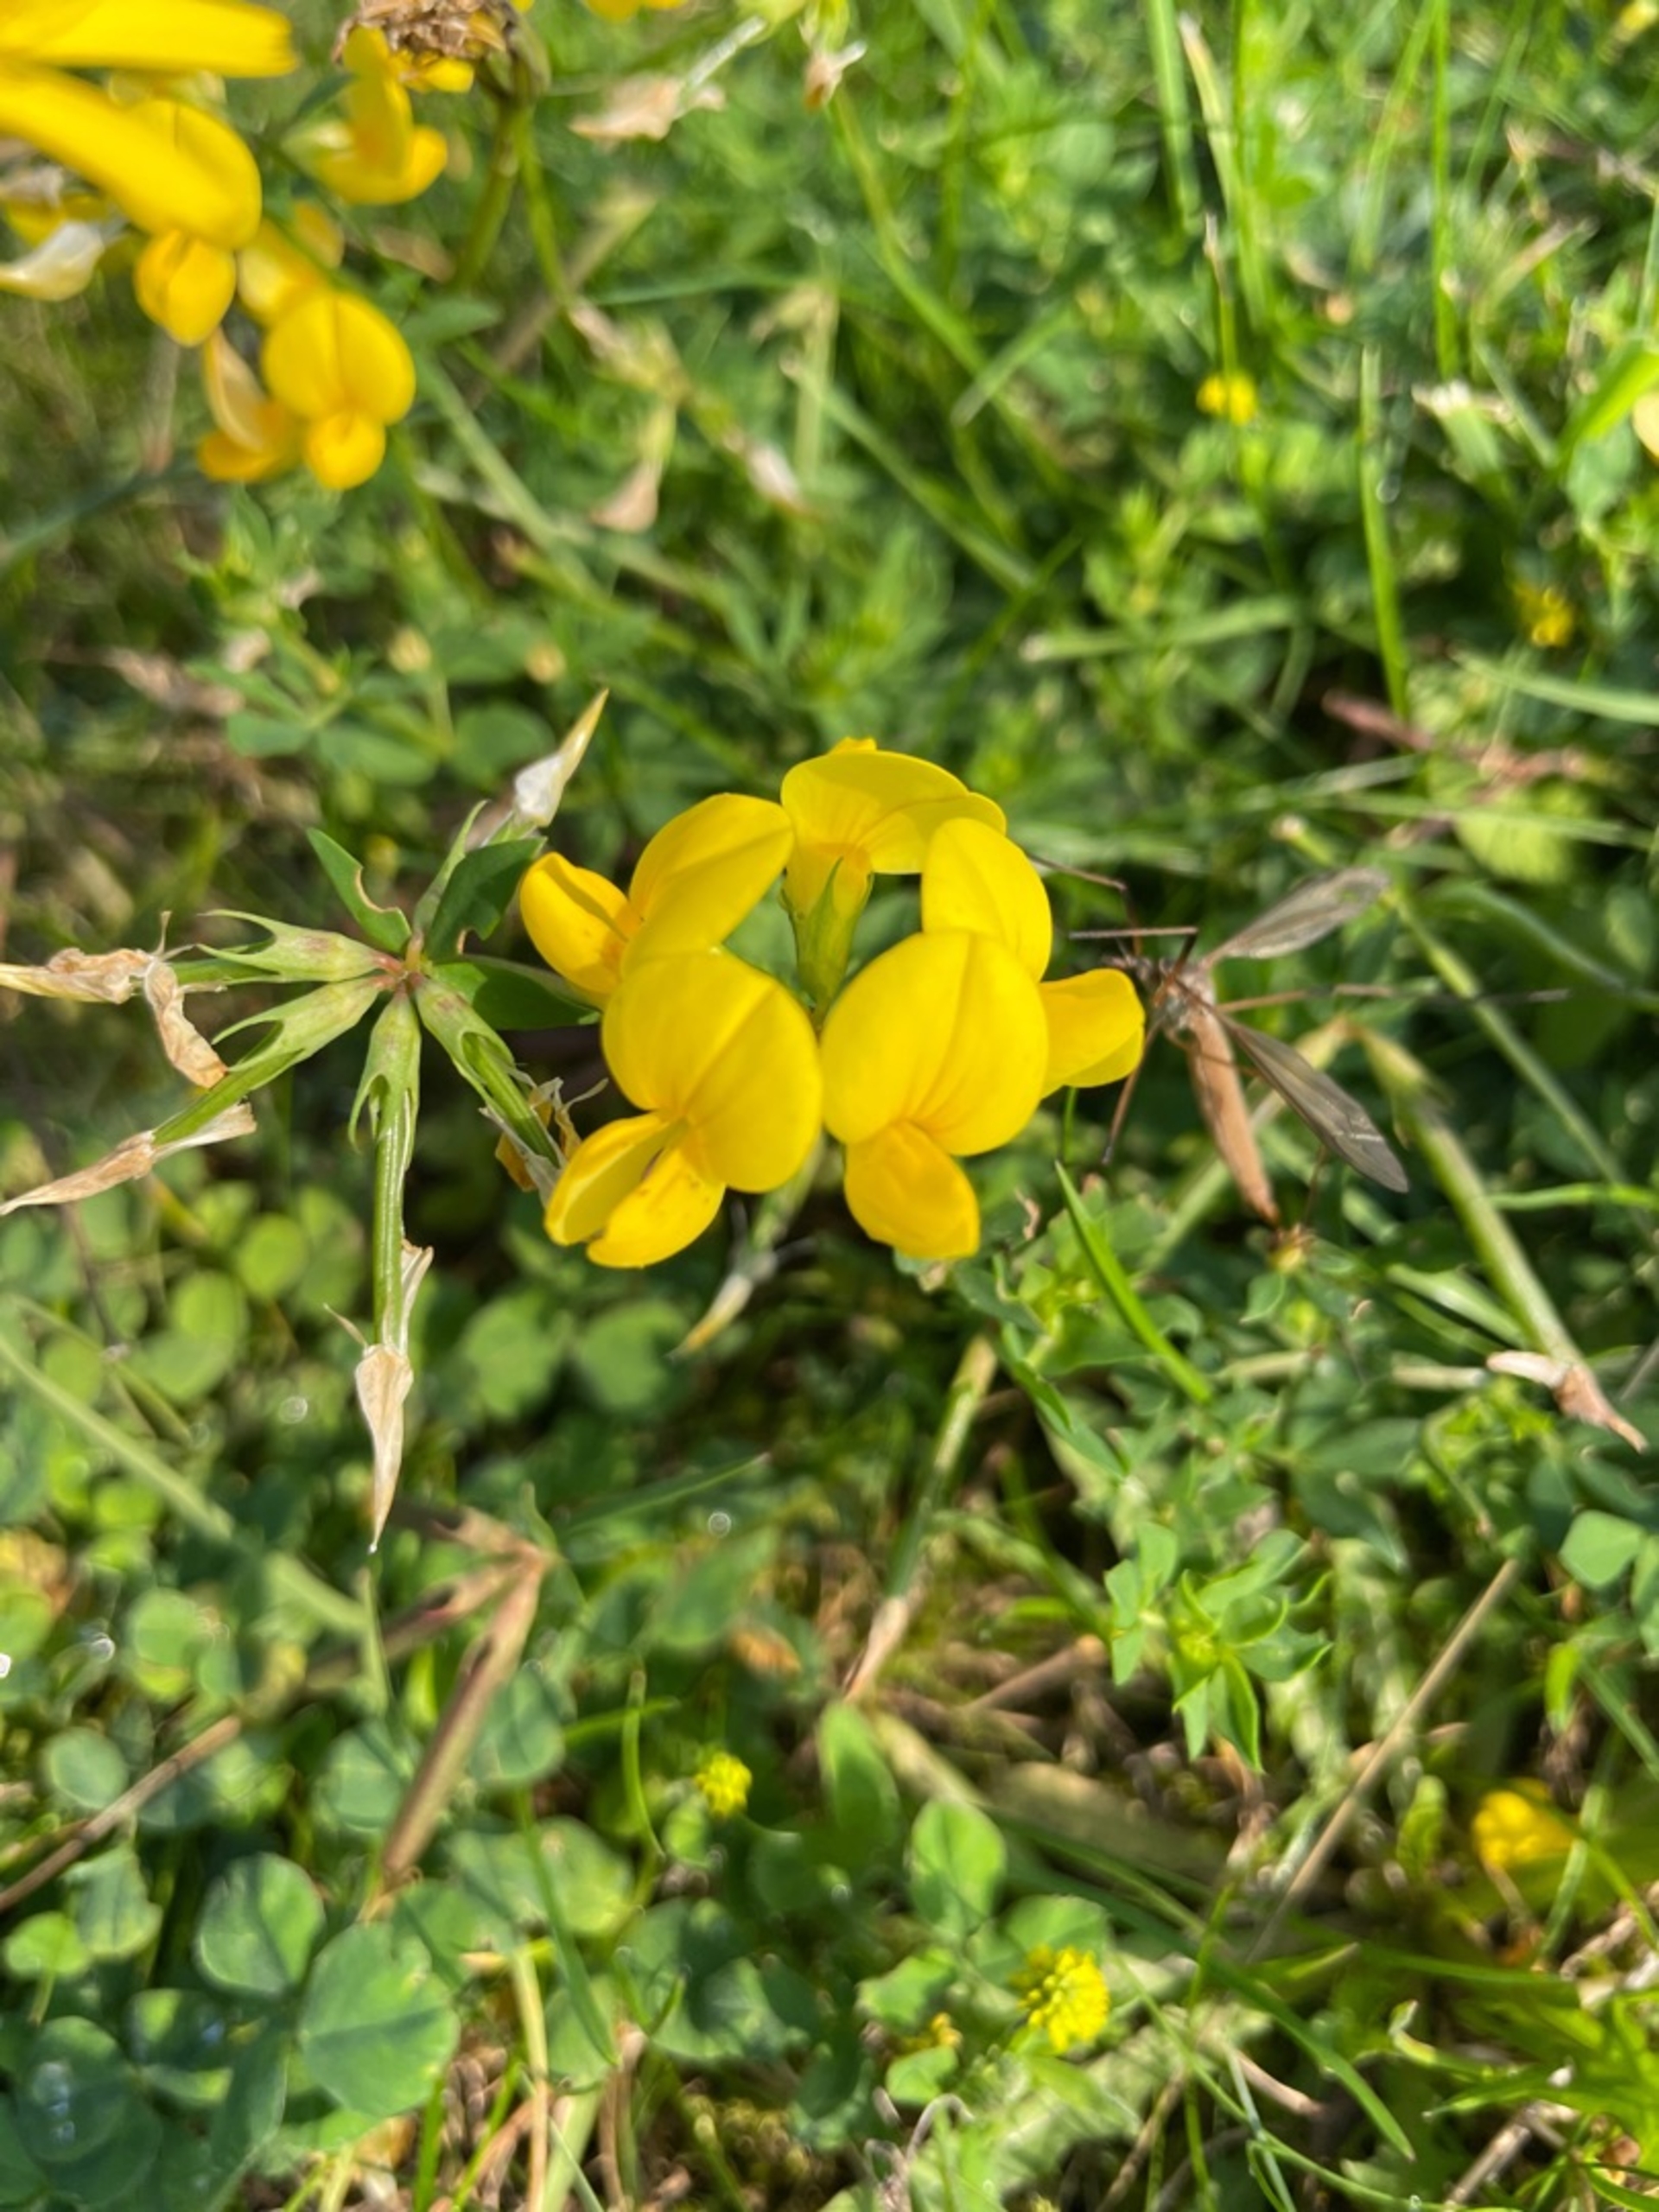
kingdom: Plantae
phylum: Tracheophyta
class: Magnoliopsida
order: Fabales
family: Fabaceae
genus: Lotus
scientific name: Lotus corniculatus
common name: Almindelig kællingetand
